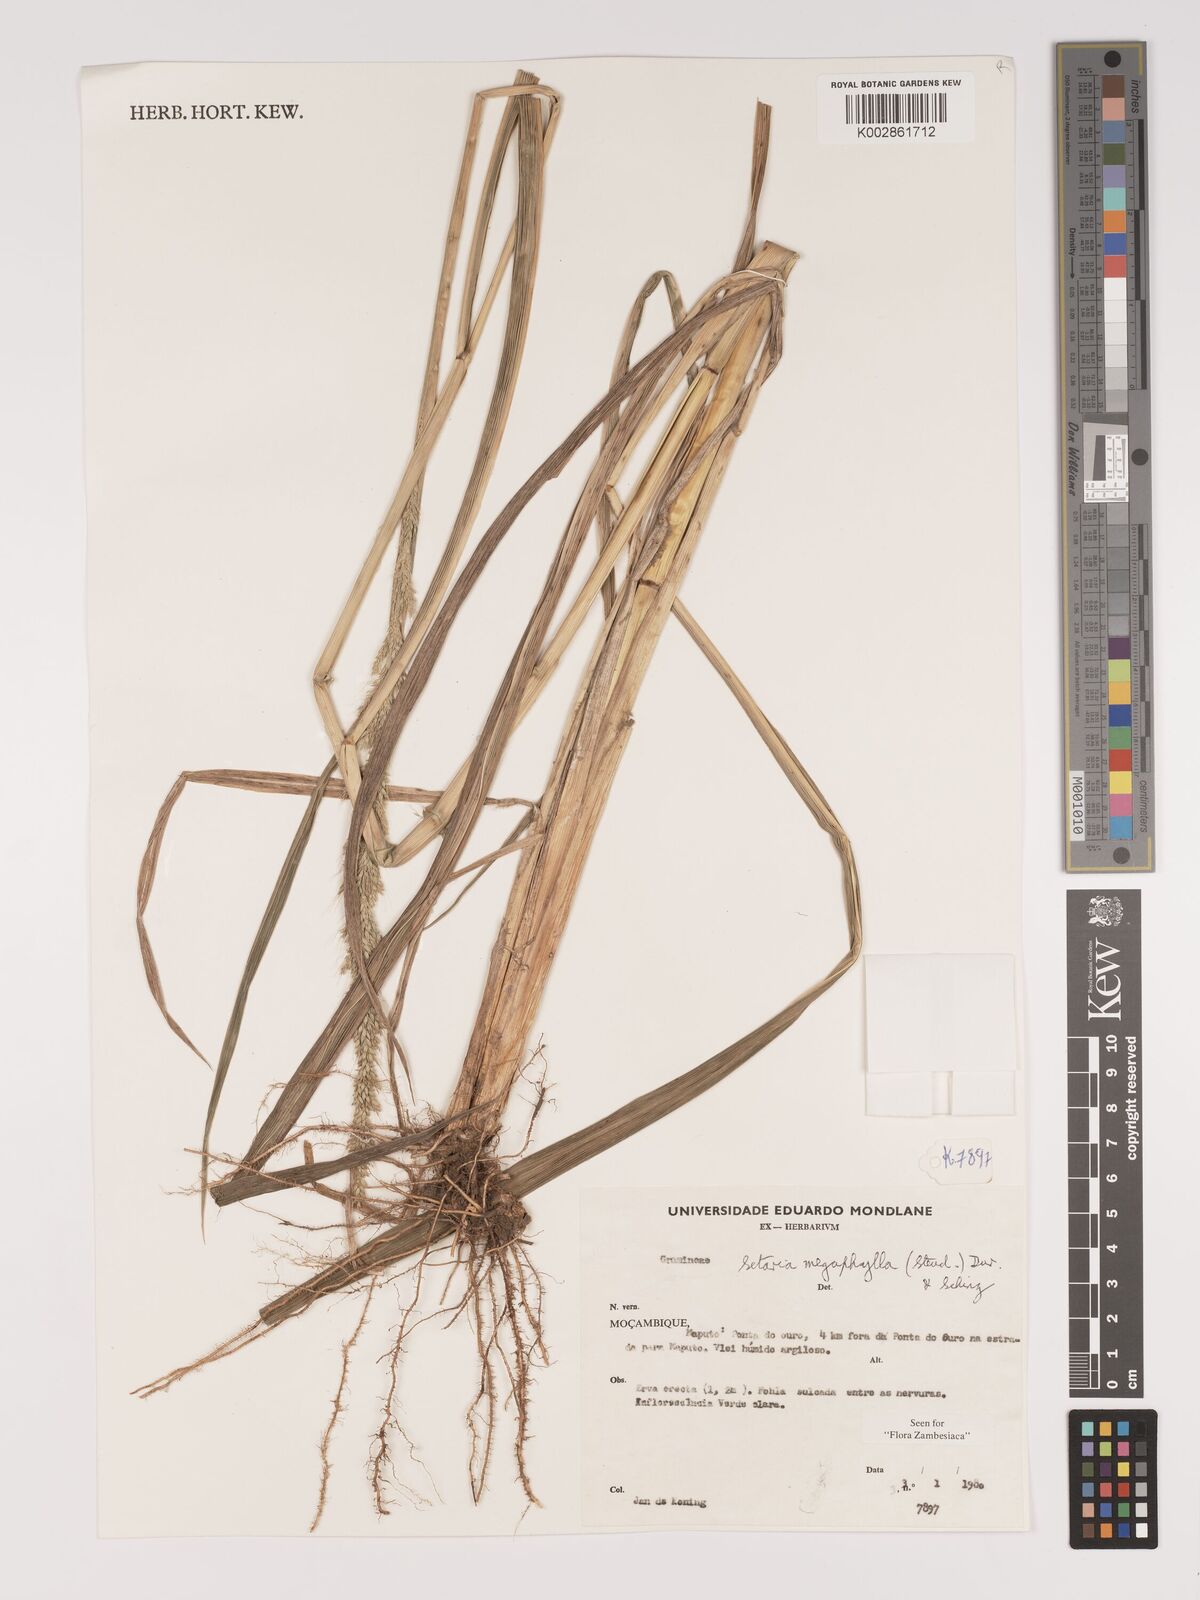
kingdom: Plantae
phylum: Tracheophyta
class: Liliopsida
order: Poales
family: Poaceae
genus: Setaria
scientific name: Setaria megaphylla
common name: Bigleaf bristlegrass
